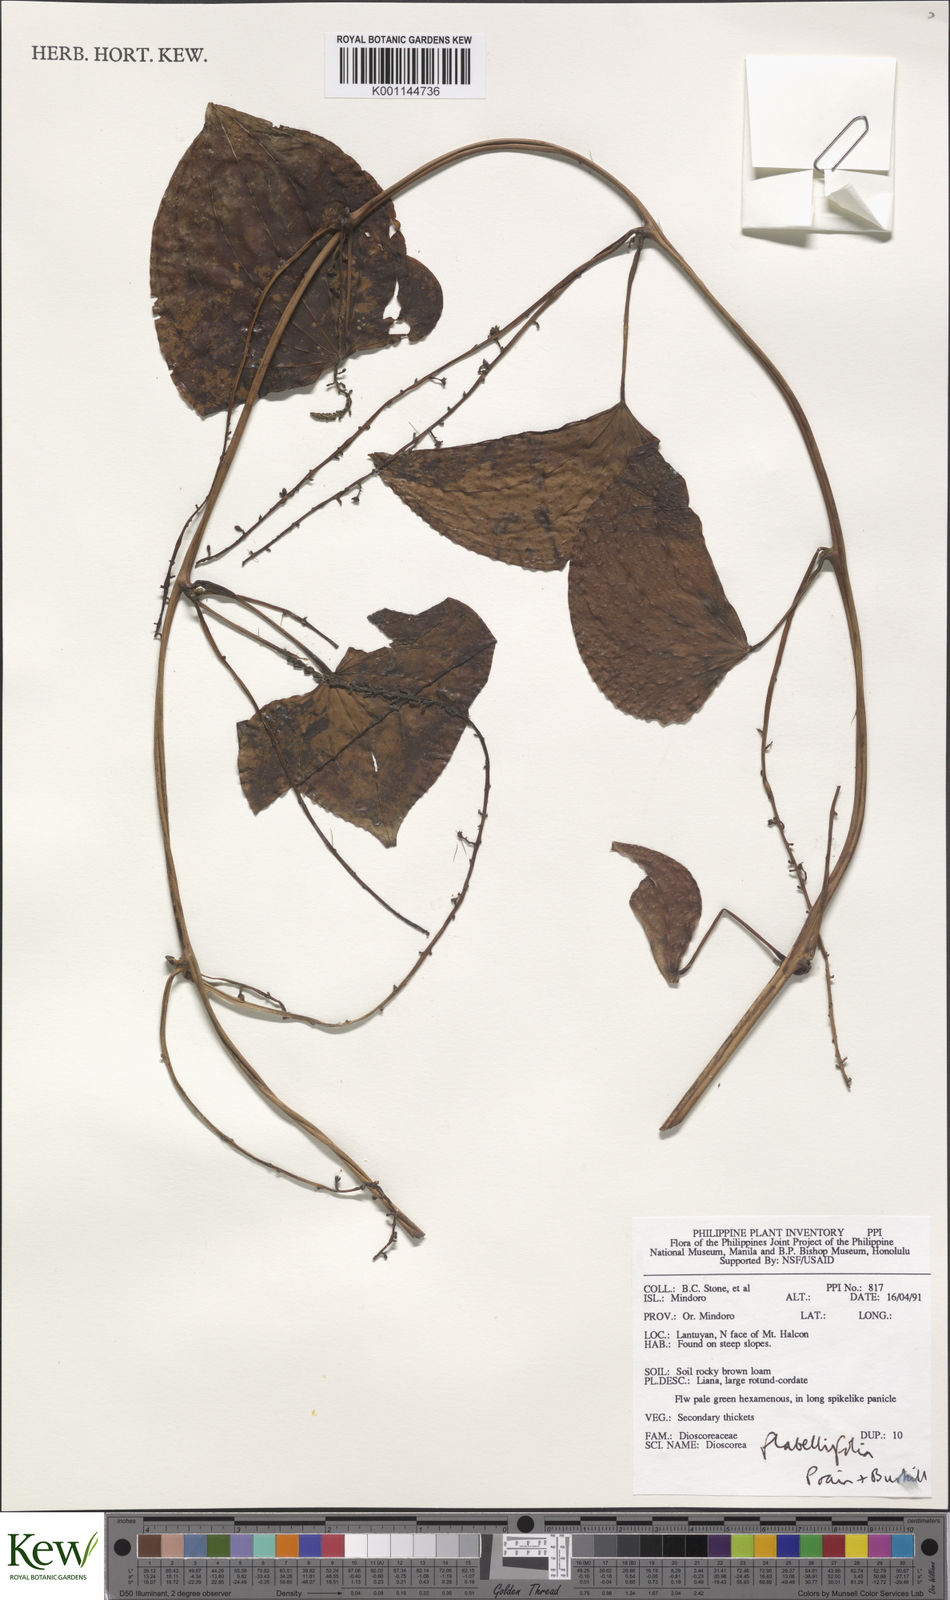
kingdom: Plantae
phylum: Tracheophyta
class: Liliopsida
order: Dioscoreales
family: Dioscoreaceae
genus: Dioscorea
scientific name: Dioscorea flabellifolia
